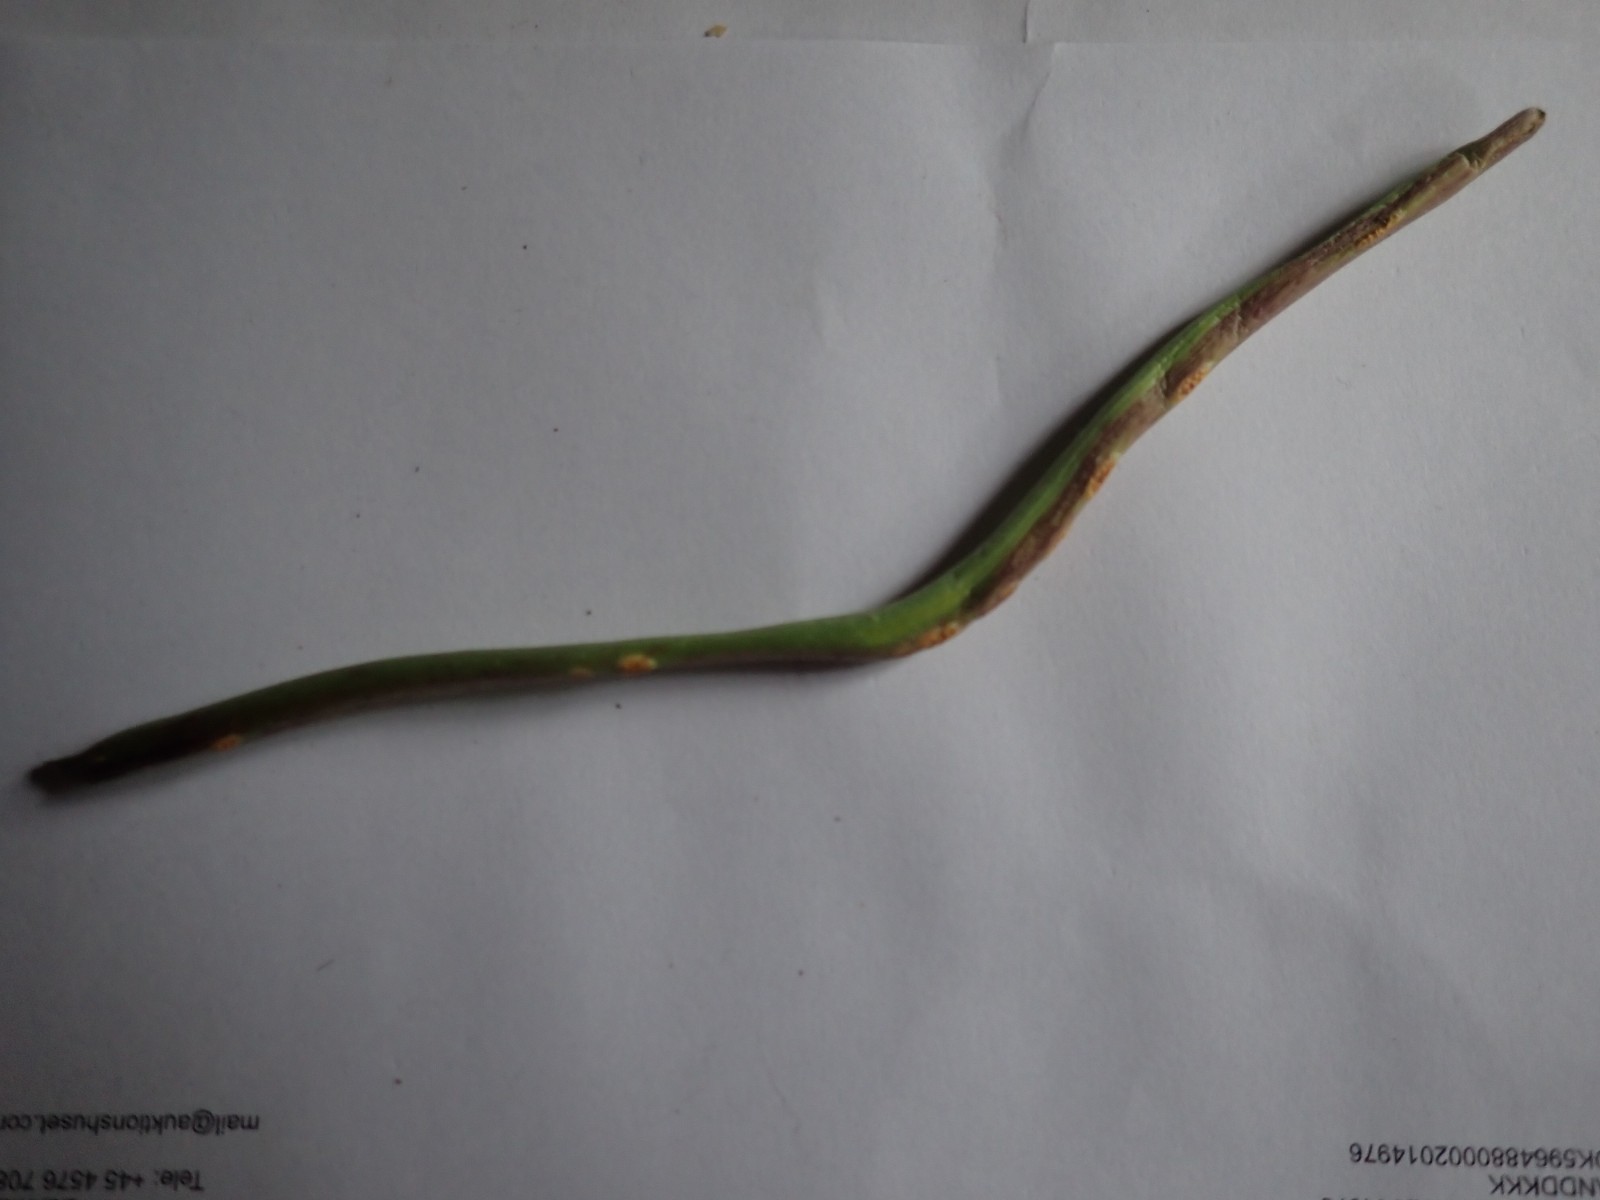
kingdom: Fungi
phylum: Basidiomycota
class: Pucciniomycetes
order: Pucciniales
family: Pucciniaceae
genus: Puccinia
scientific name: Puccinia hieracii
